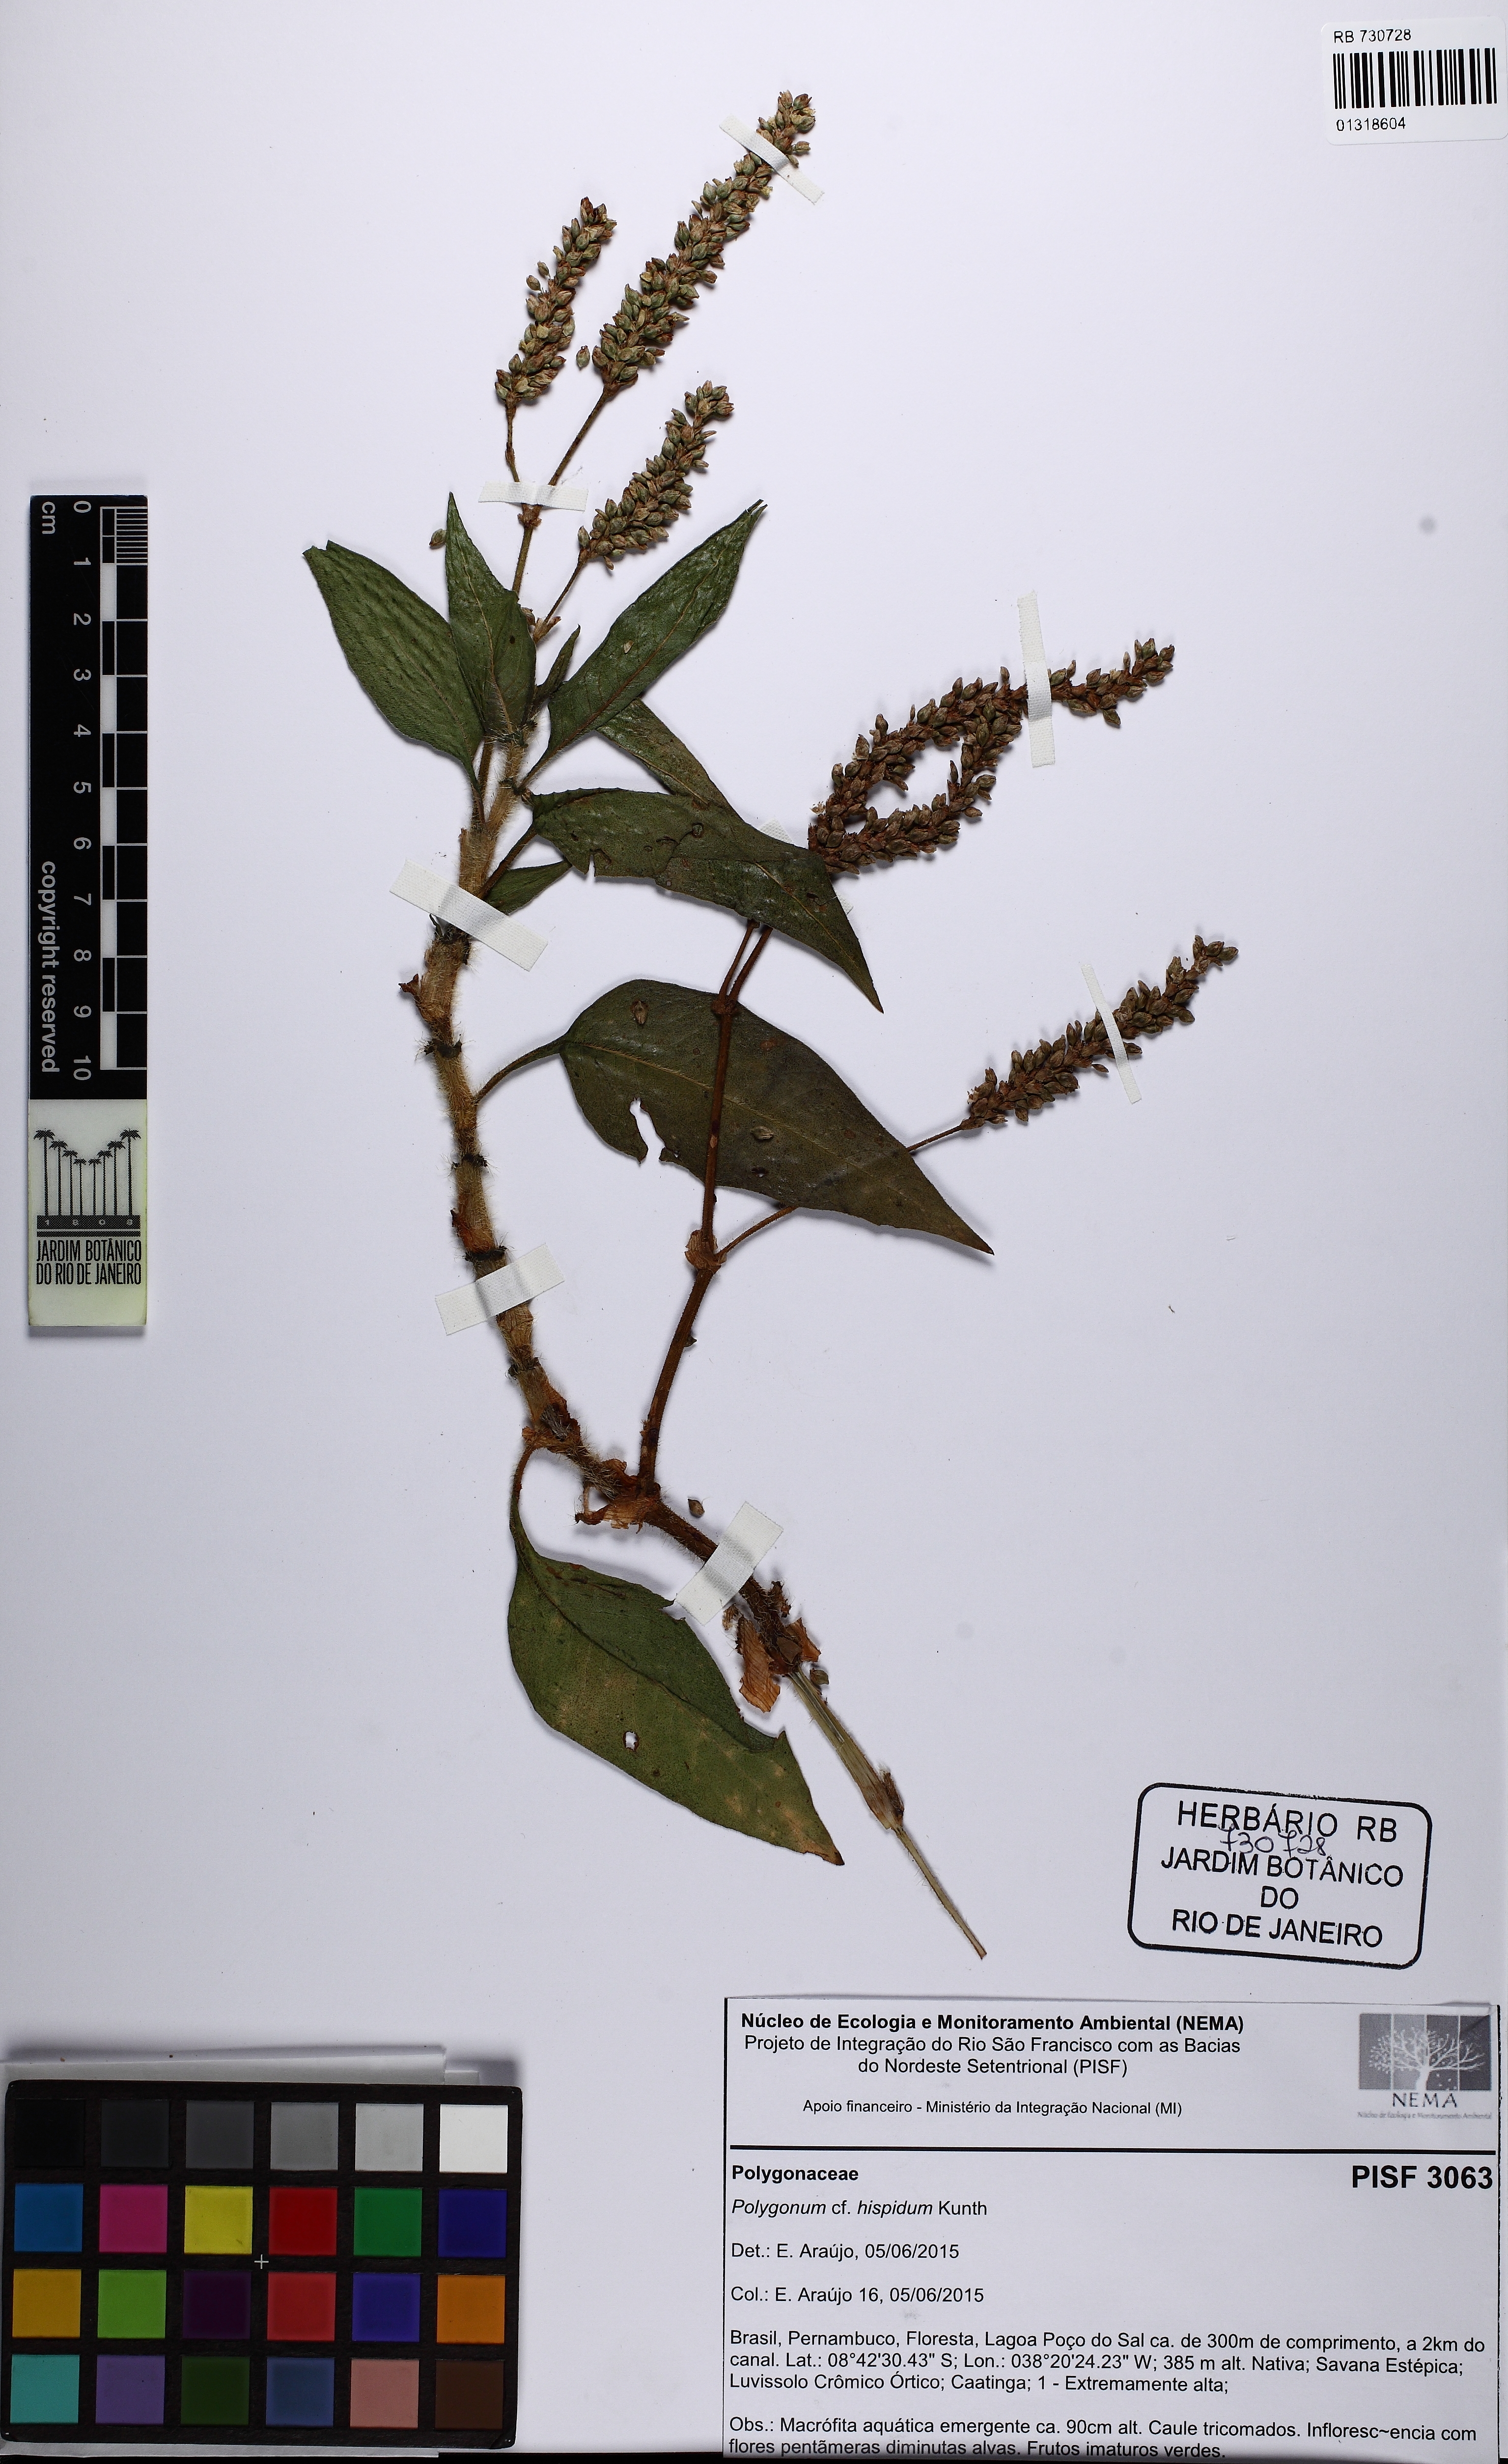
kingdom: Plantae
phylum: Tracheophyta
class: Magnoliopsida
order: Caryophyllales
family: Polygonaceae
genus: Persicaria
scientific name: Persicaria hispida
